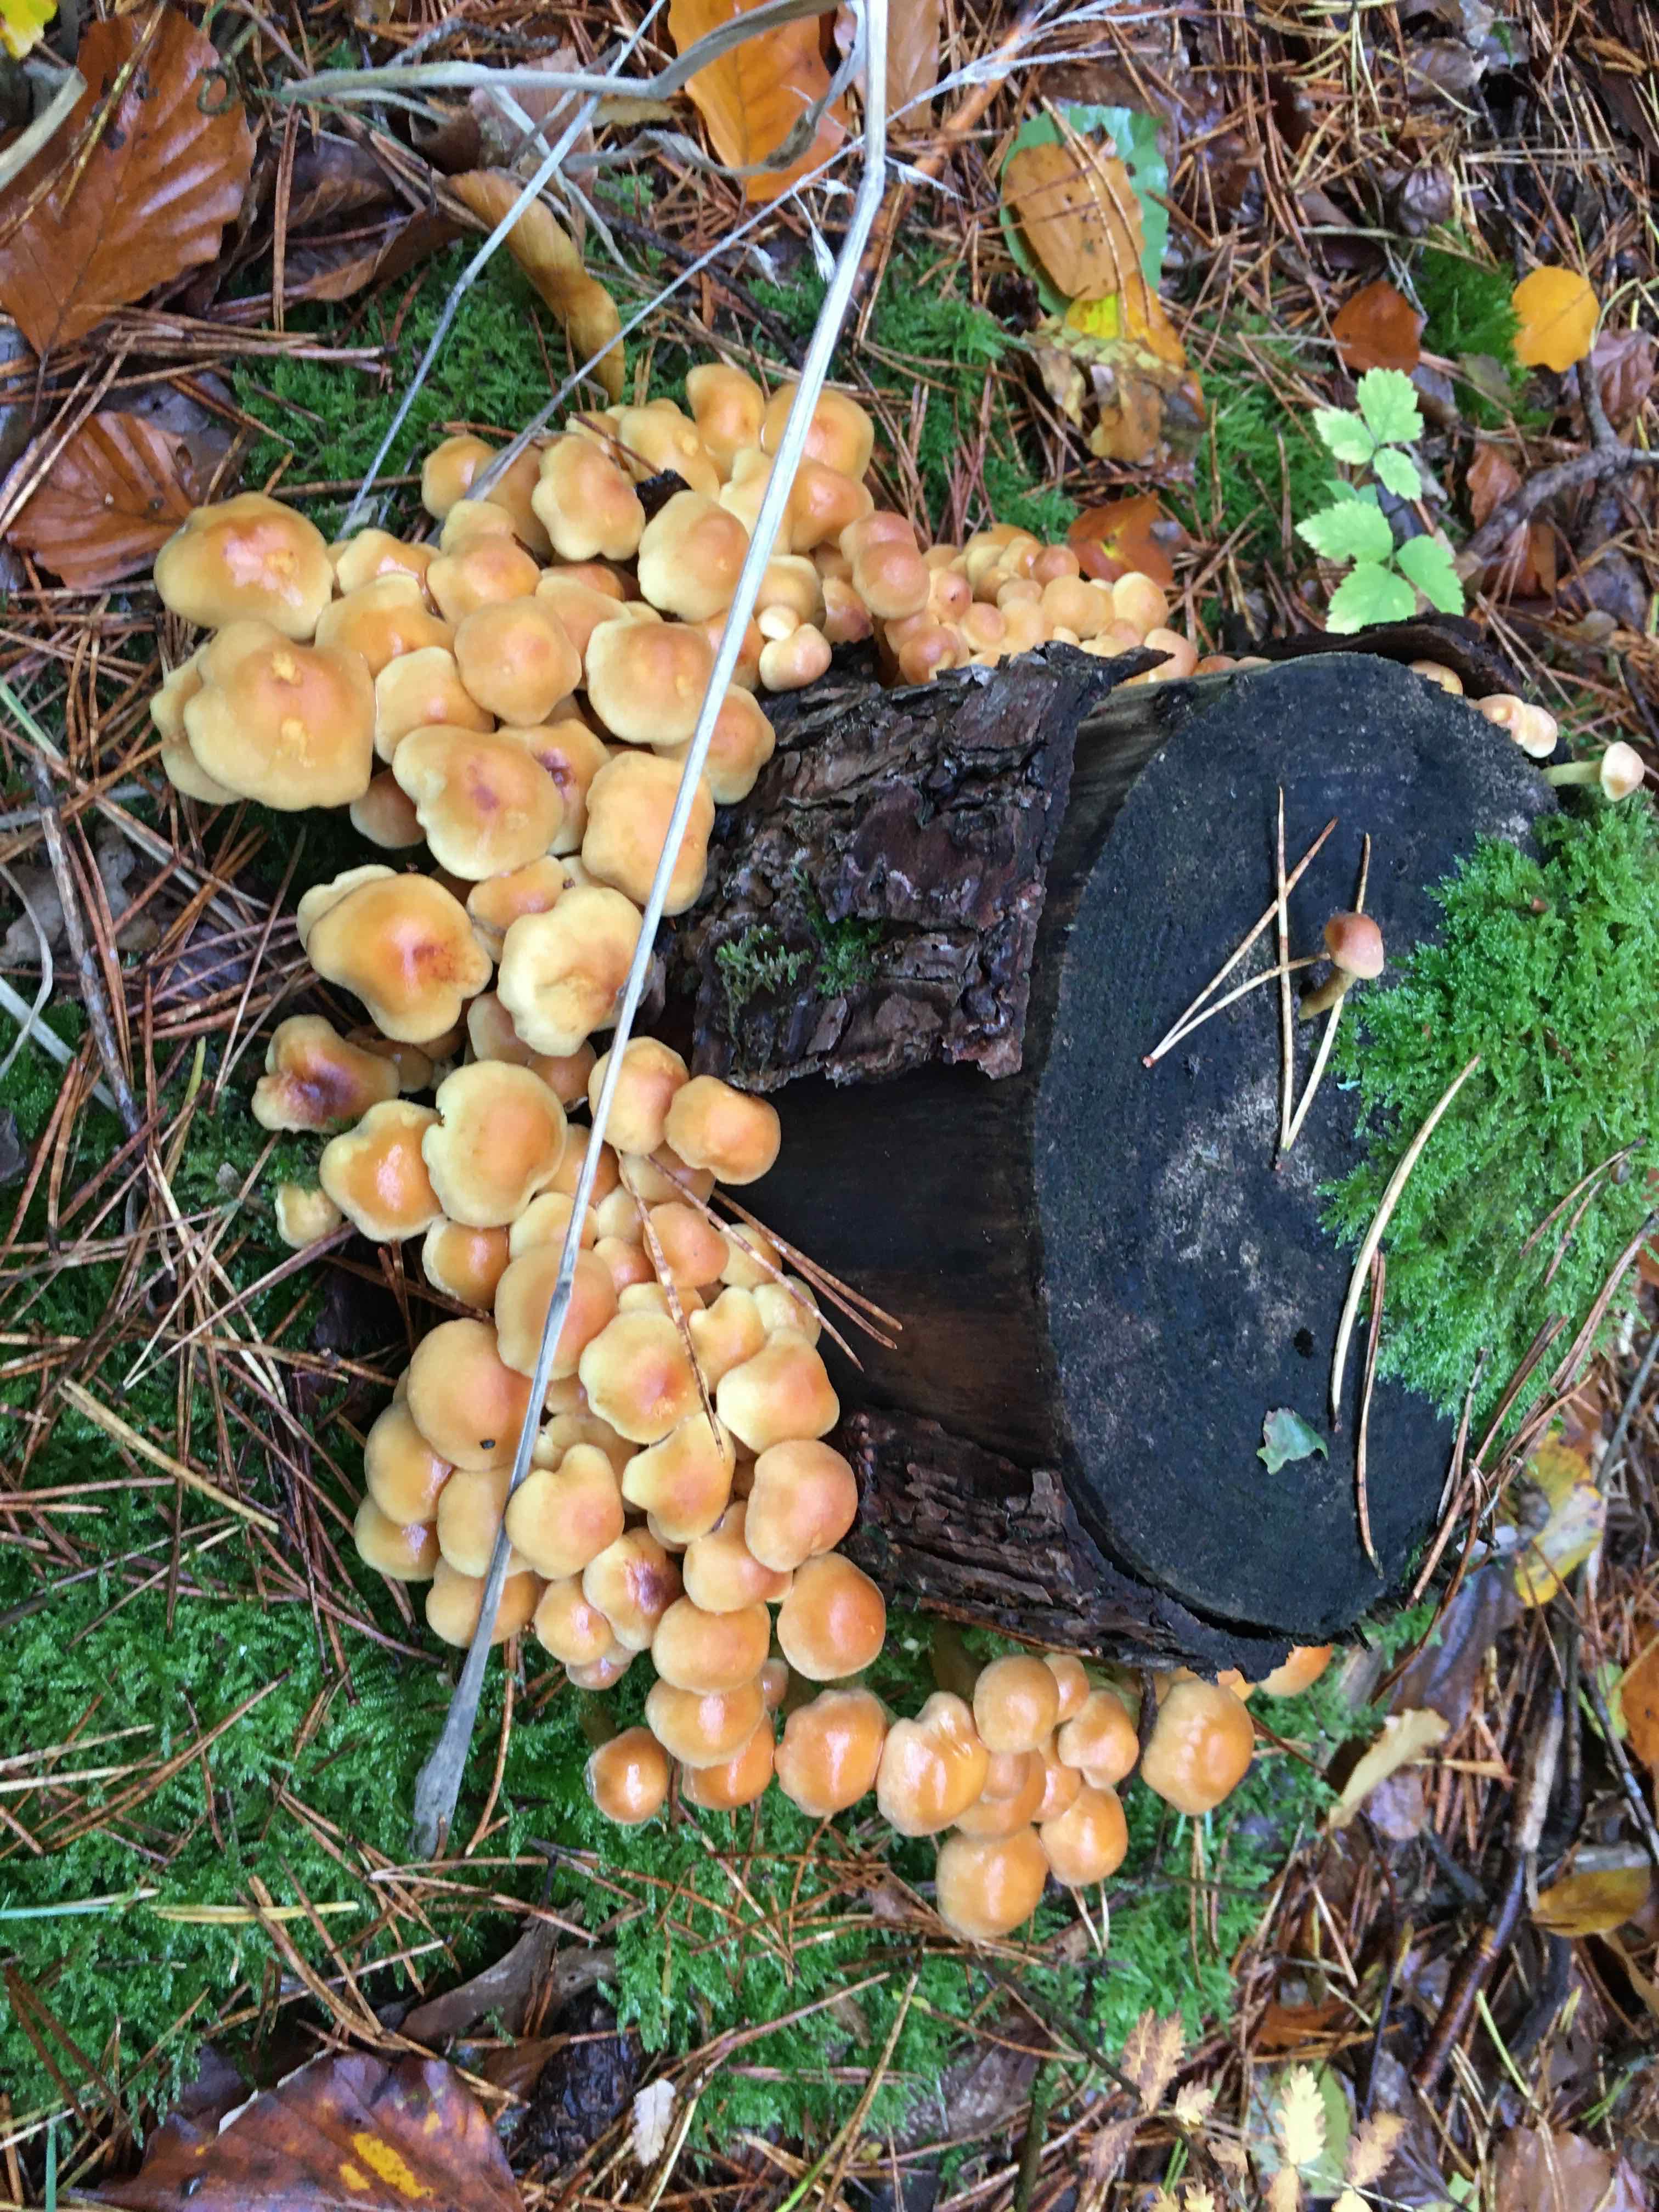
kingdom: Fungi
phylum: Basidiomycota
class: Agaricomycetes
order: Agaricales
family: Strophariaceae
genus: Hypholoma
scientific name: Hypholoma fasciculare
